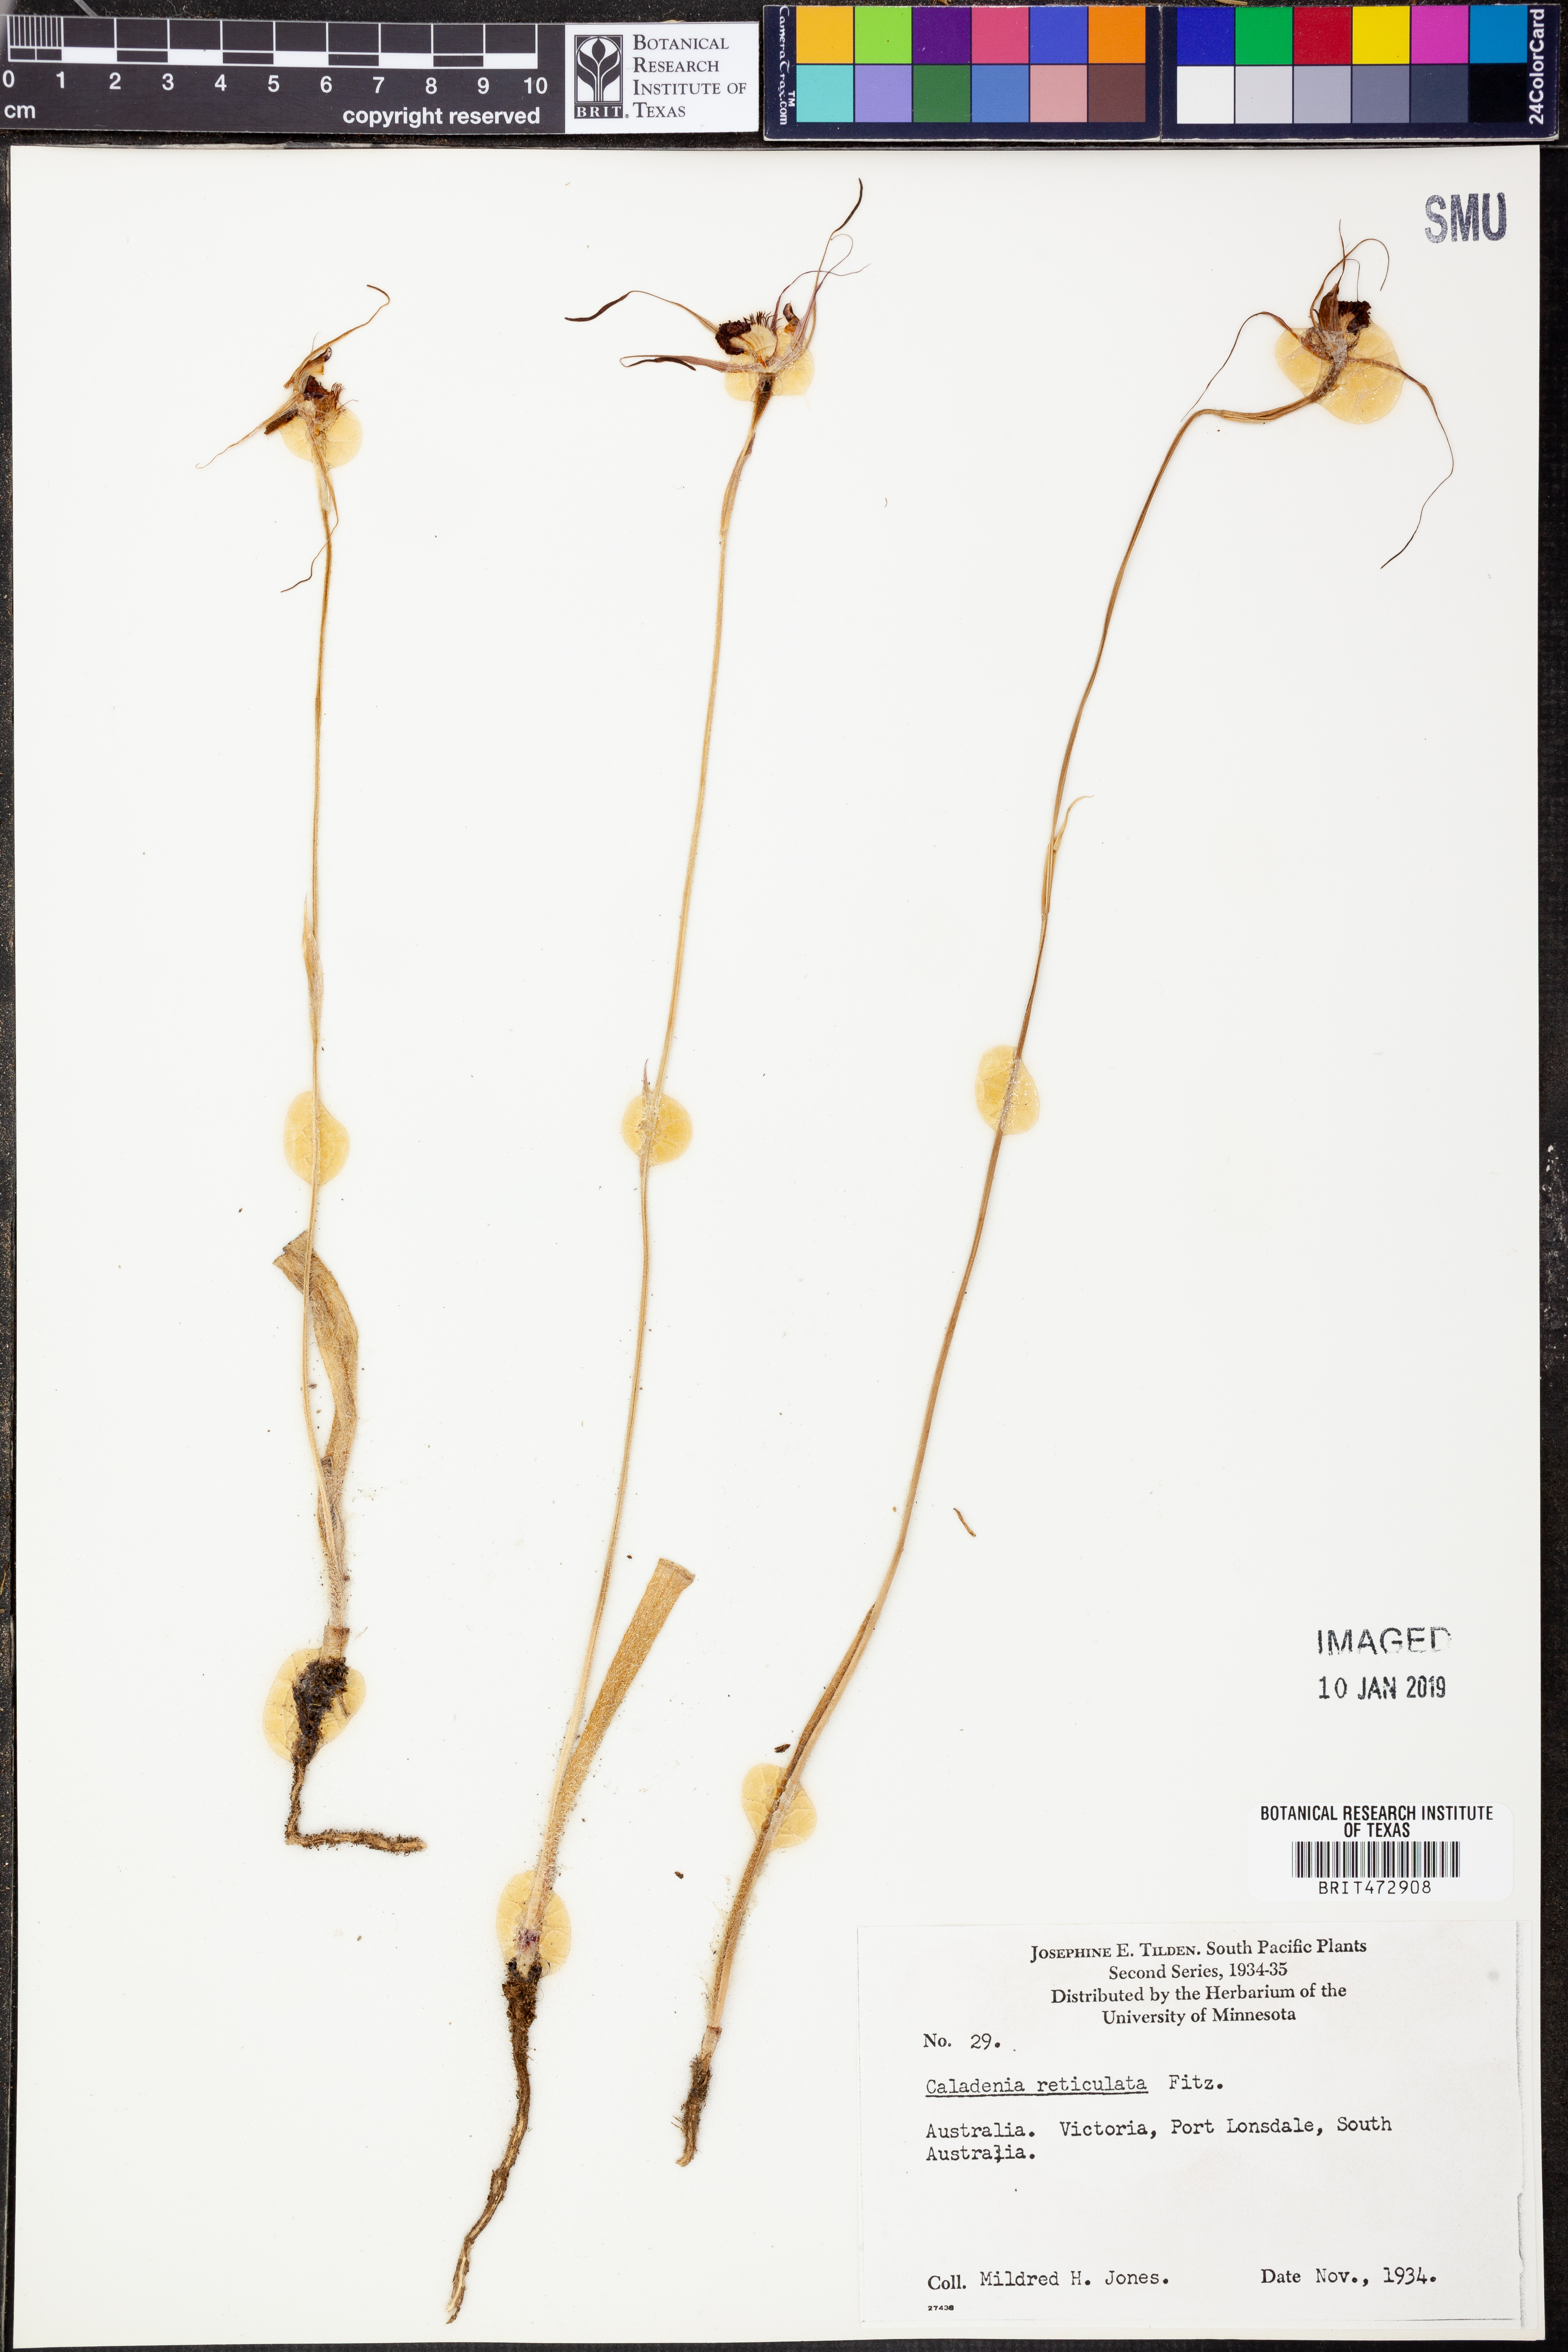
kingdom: Plantae
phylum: Tracheophyta
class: Liliopsida
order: Asparagales
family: Orchidaceae
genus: Caladenia
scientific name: Caladenia reticulata
